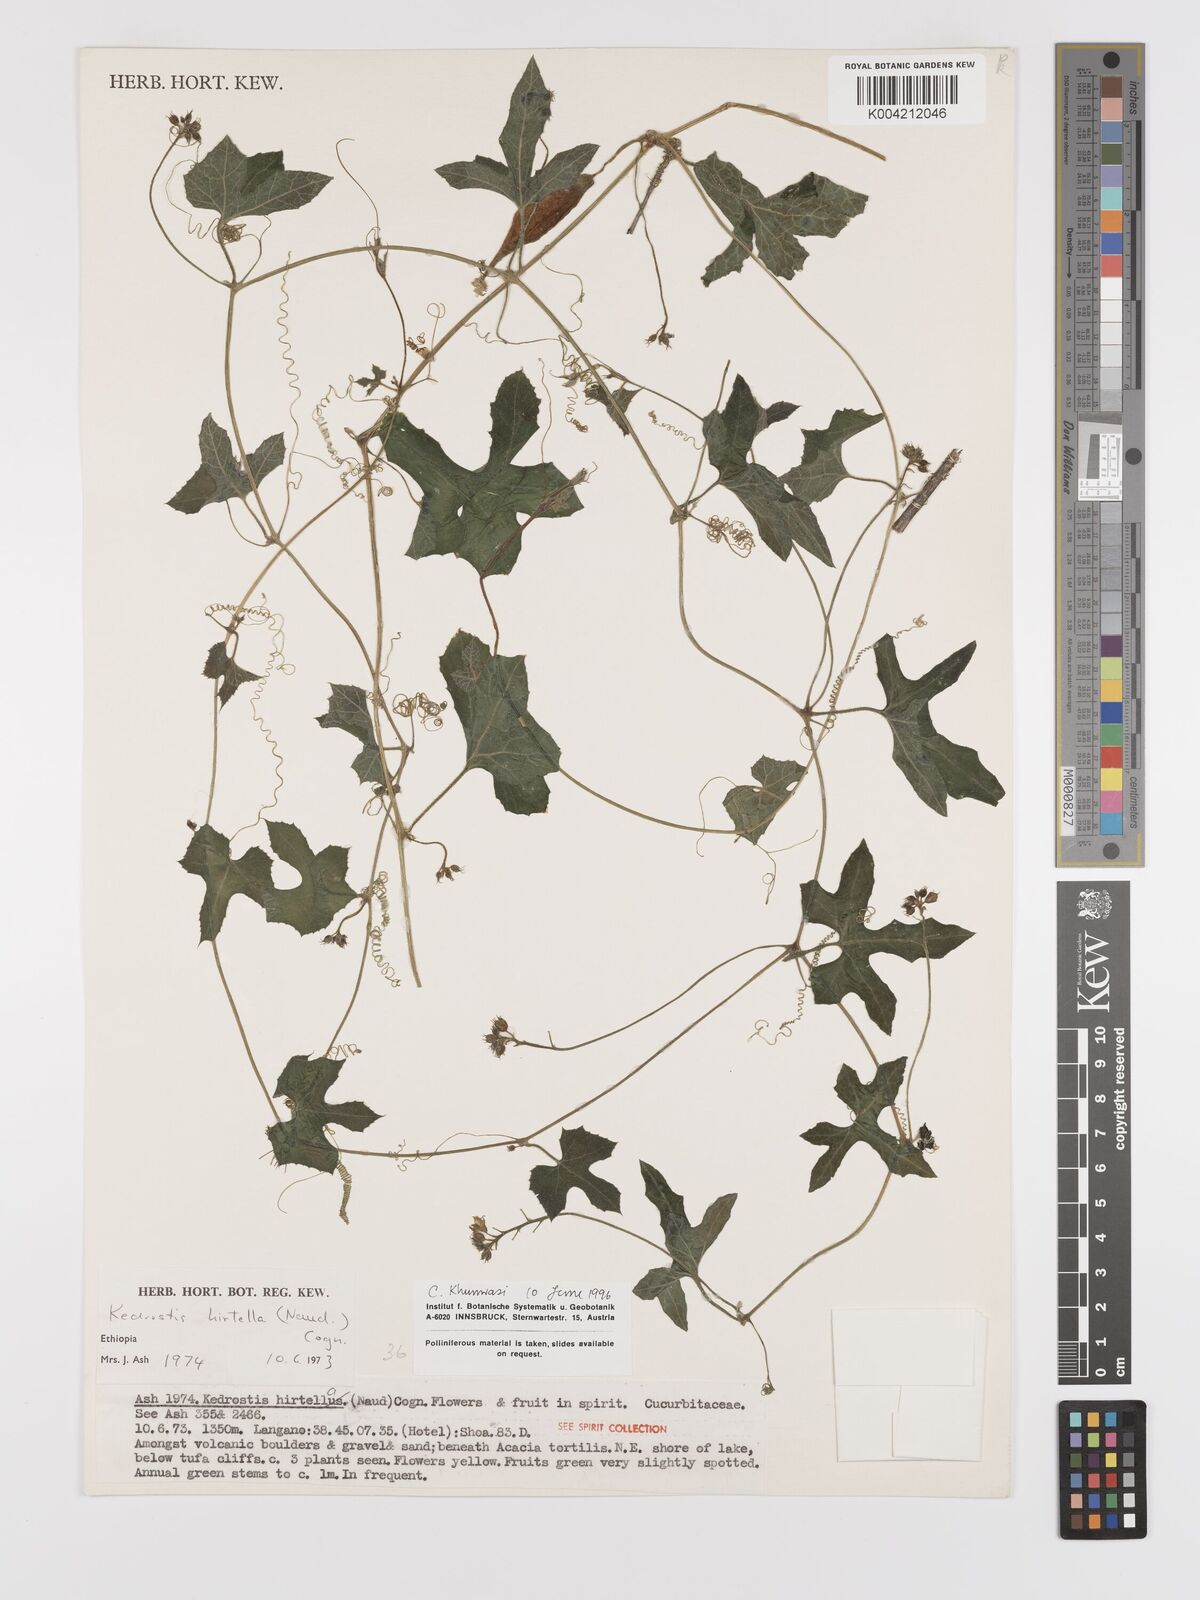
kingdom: Plantae
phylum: Tracheophyta
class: Magnoliopsida
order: Cucurbitales
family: Cucurbitaceae
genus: Kedrostis
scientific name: Kedrostis leloja
